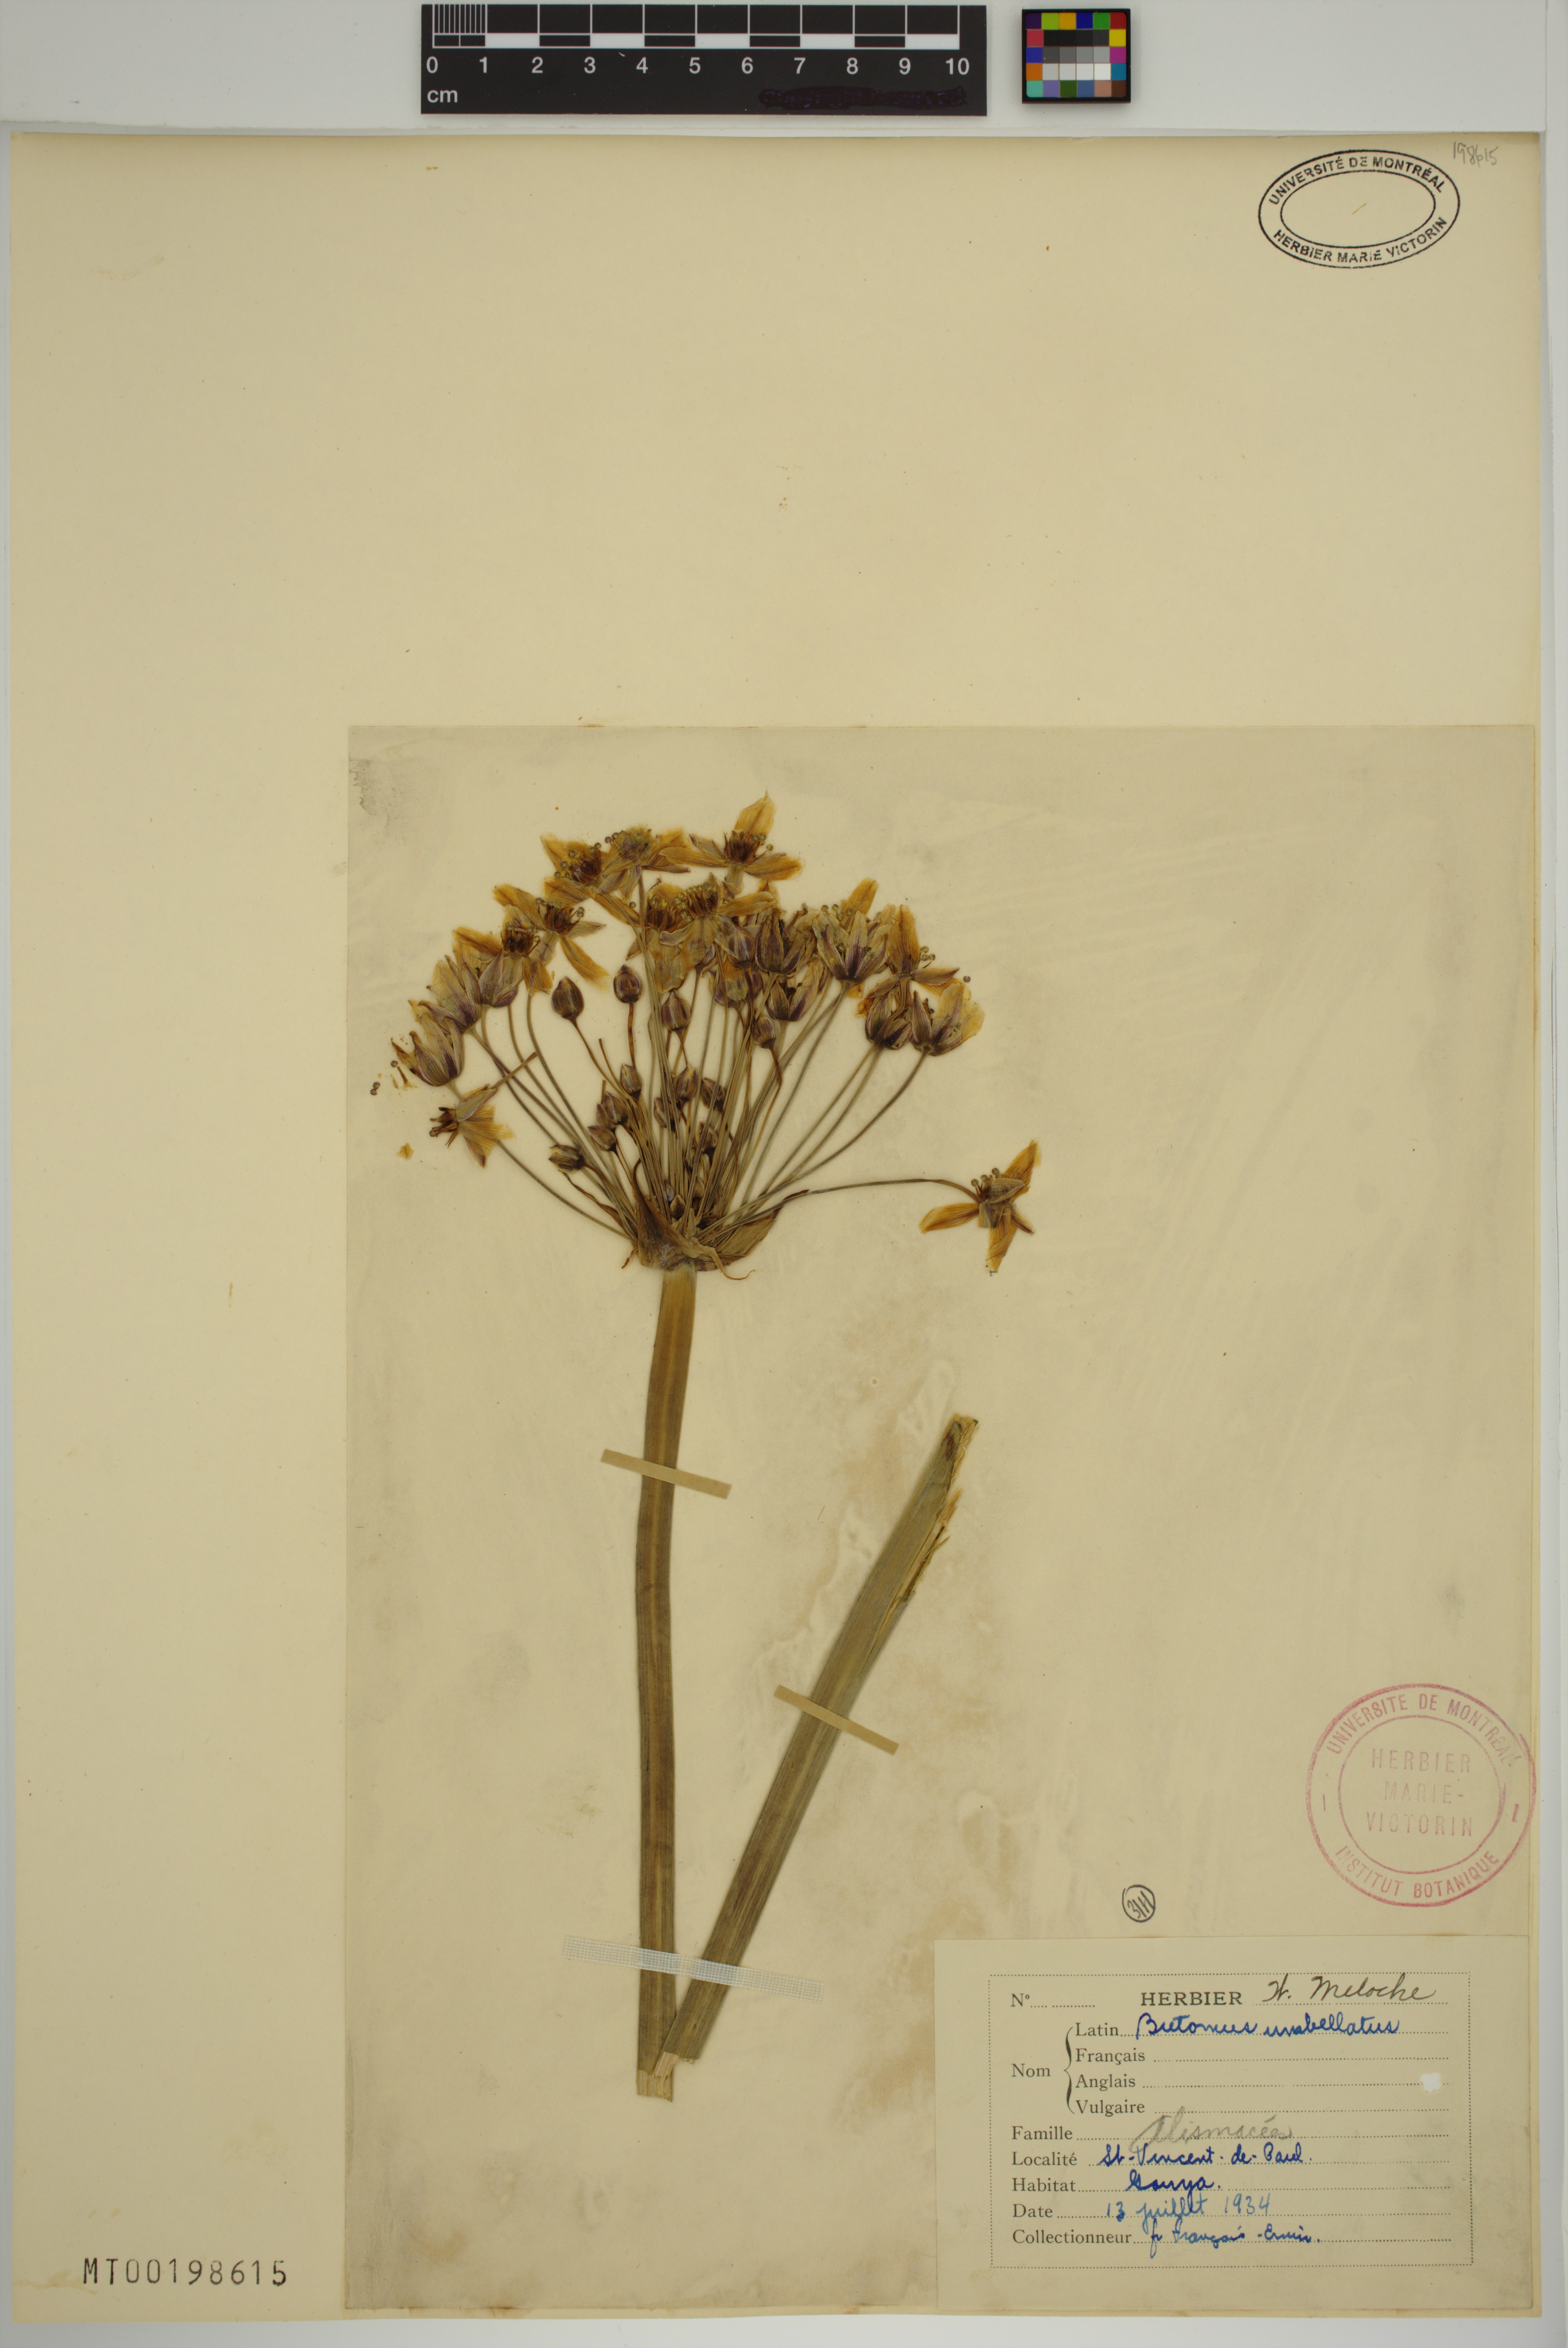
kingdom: Plantae
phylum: Tracheophyta
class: Liliopsida
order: Alismatales
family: Butomaceae
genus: Butomus
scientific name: Butomus umbellatus
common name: Flowering-rush
